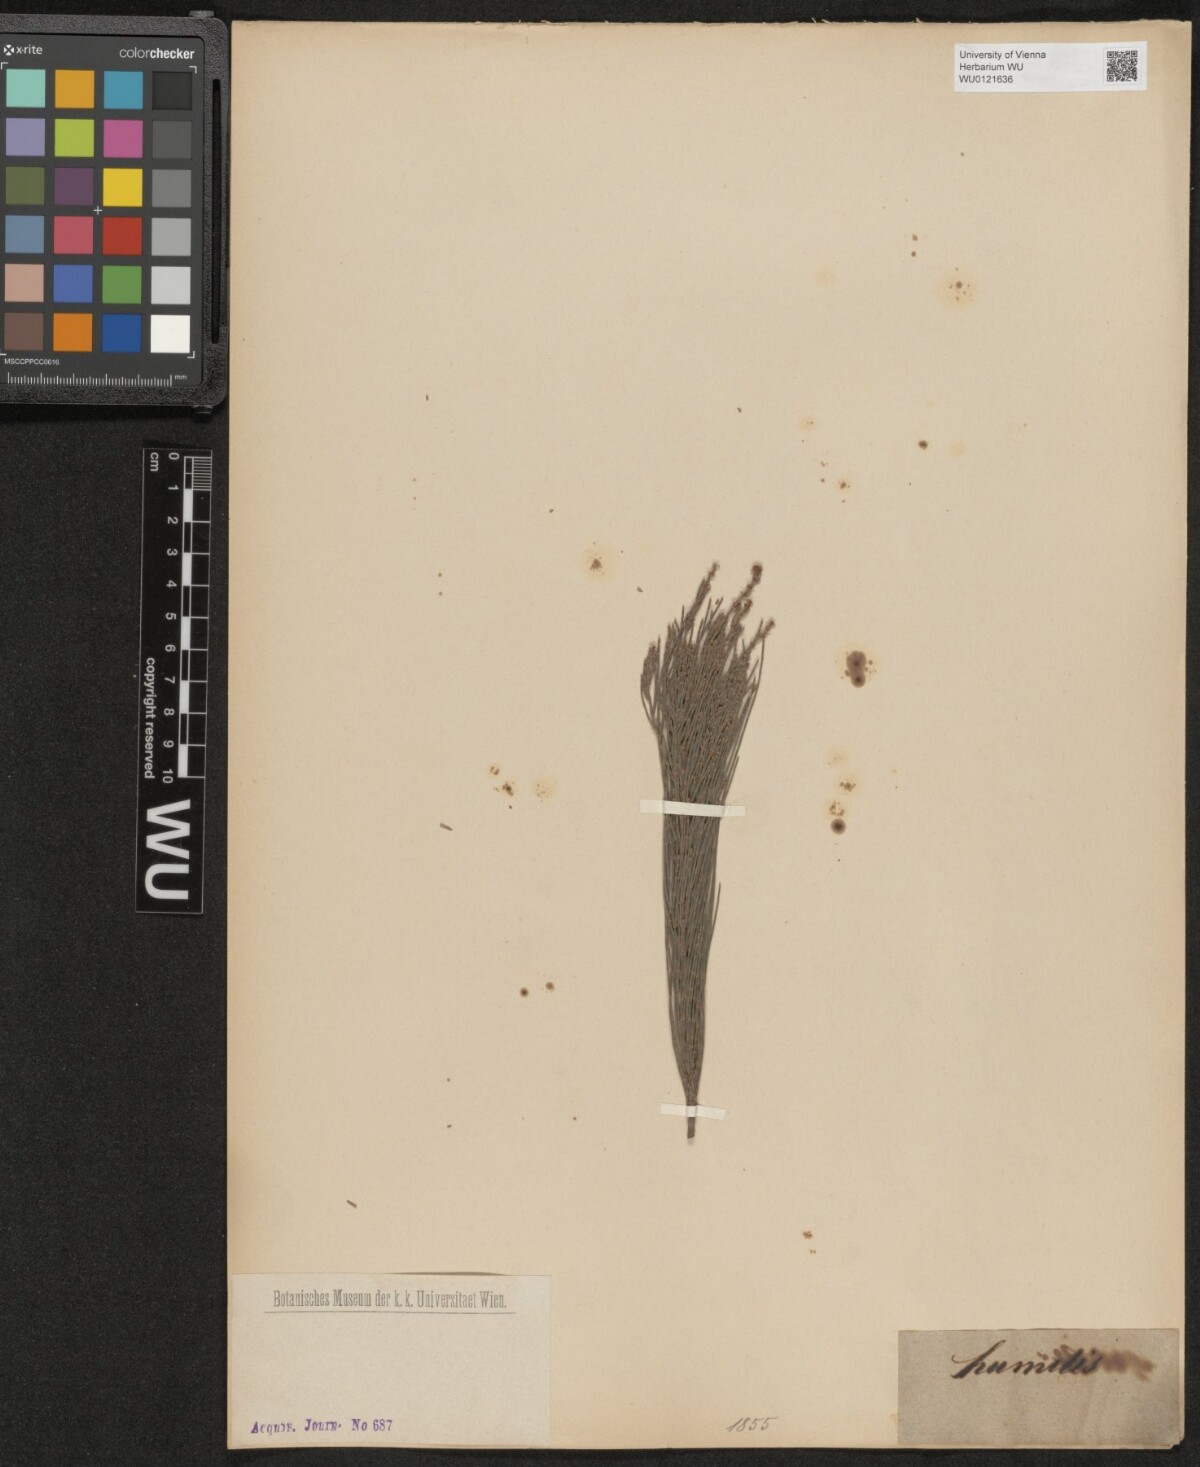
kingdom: Plantae
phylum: Tracheophyta
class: Magnoliopsida
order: Fagales
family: Casuarinaceae
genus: Allocasuarina
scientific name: Allocasuarina humilis
